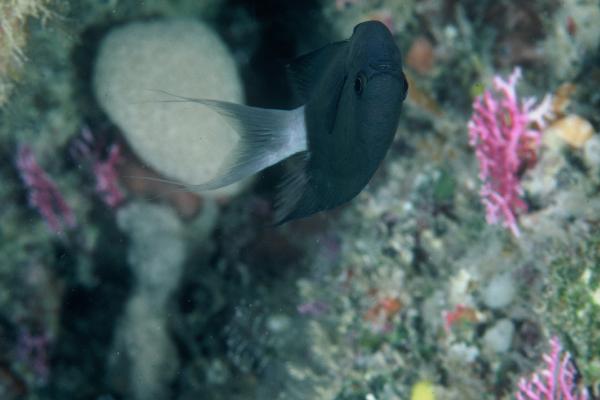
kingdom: Animalia
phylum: Chordata
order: Perciformes
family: Pomacentridae
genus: Chromis
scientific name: Chromis caudalis
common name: Blue-axil chromis
